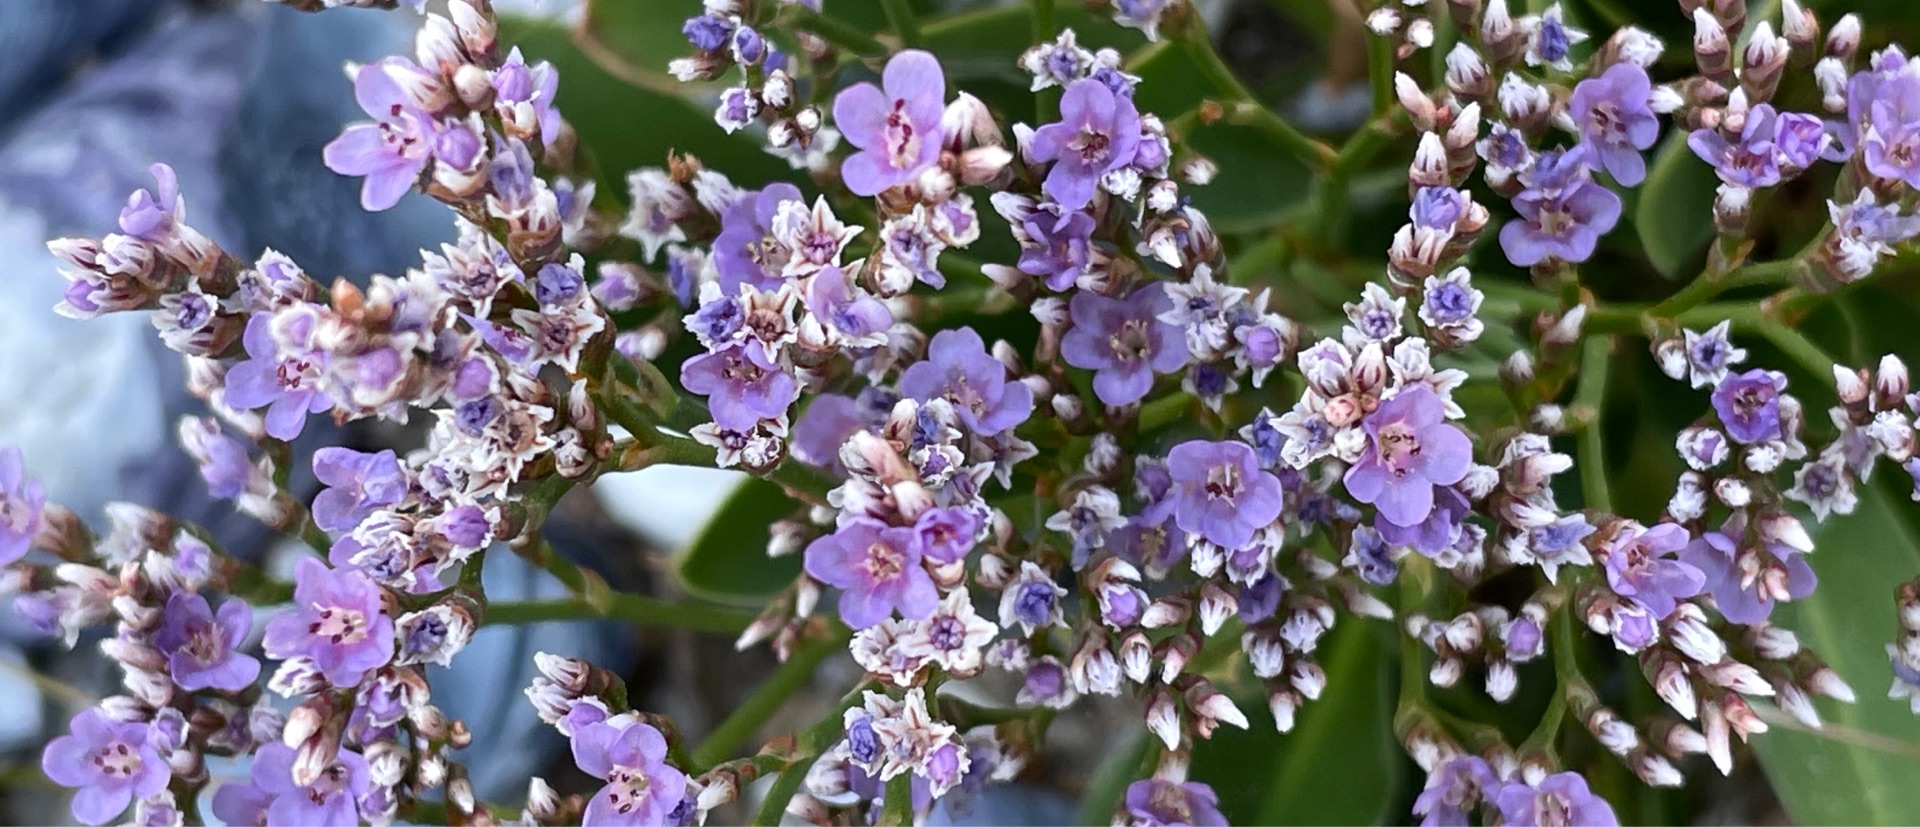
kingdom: Plantae
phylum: Tracheophyta
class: Magnoliopsida
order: Caryophyllales
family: Plumbaginaceae
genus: Limonium
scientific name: Limonium humile
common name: Lav hindebæger
